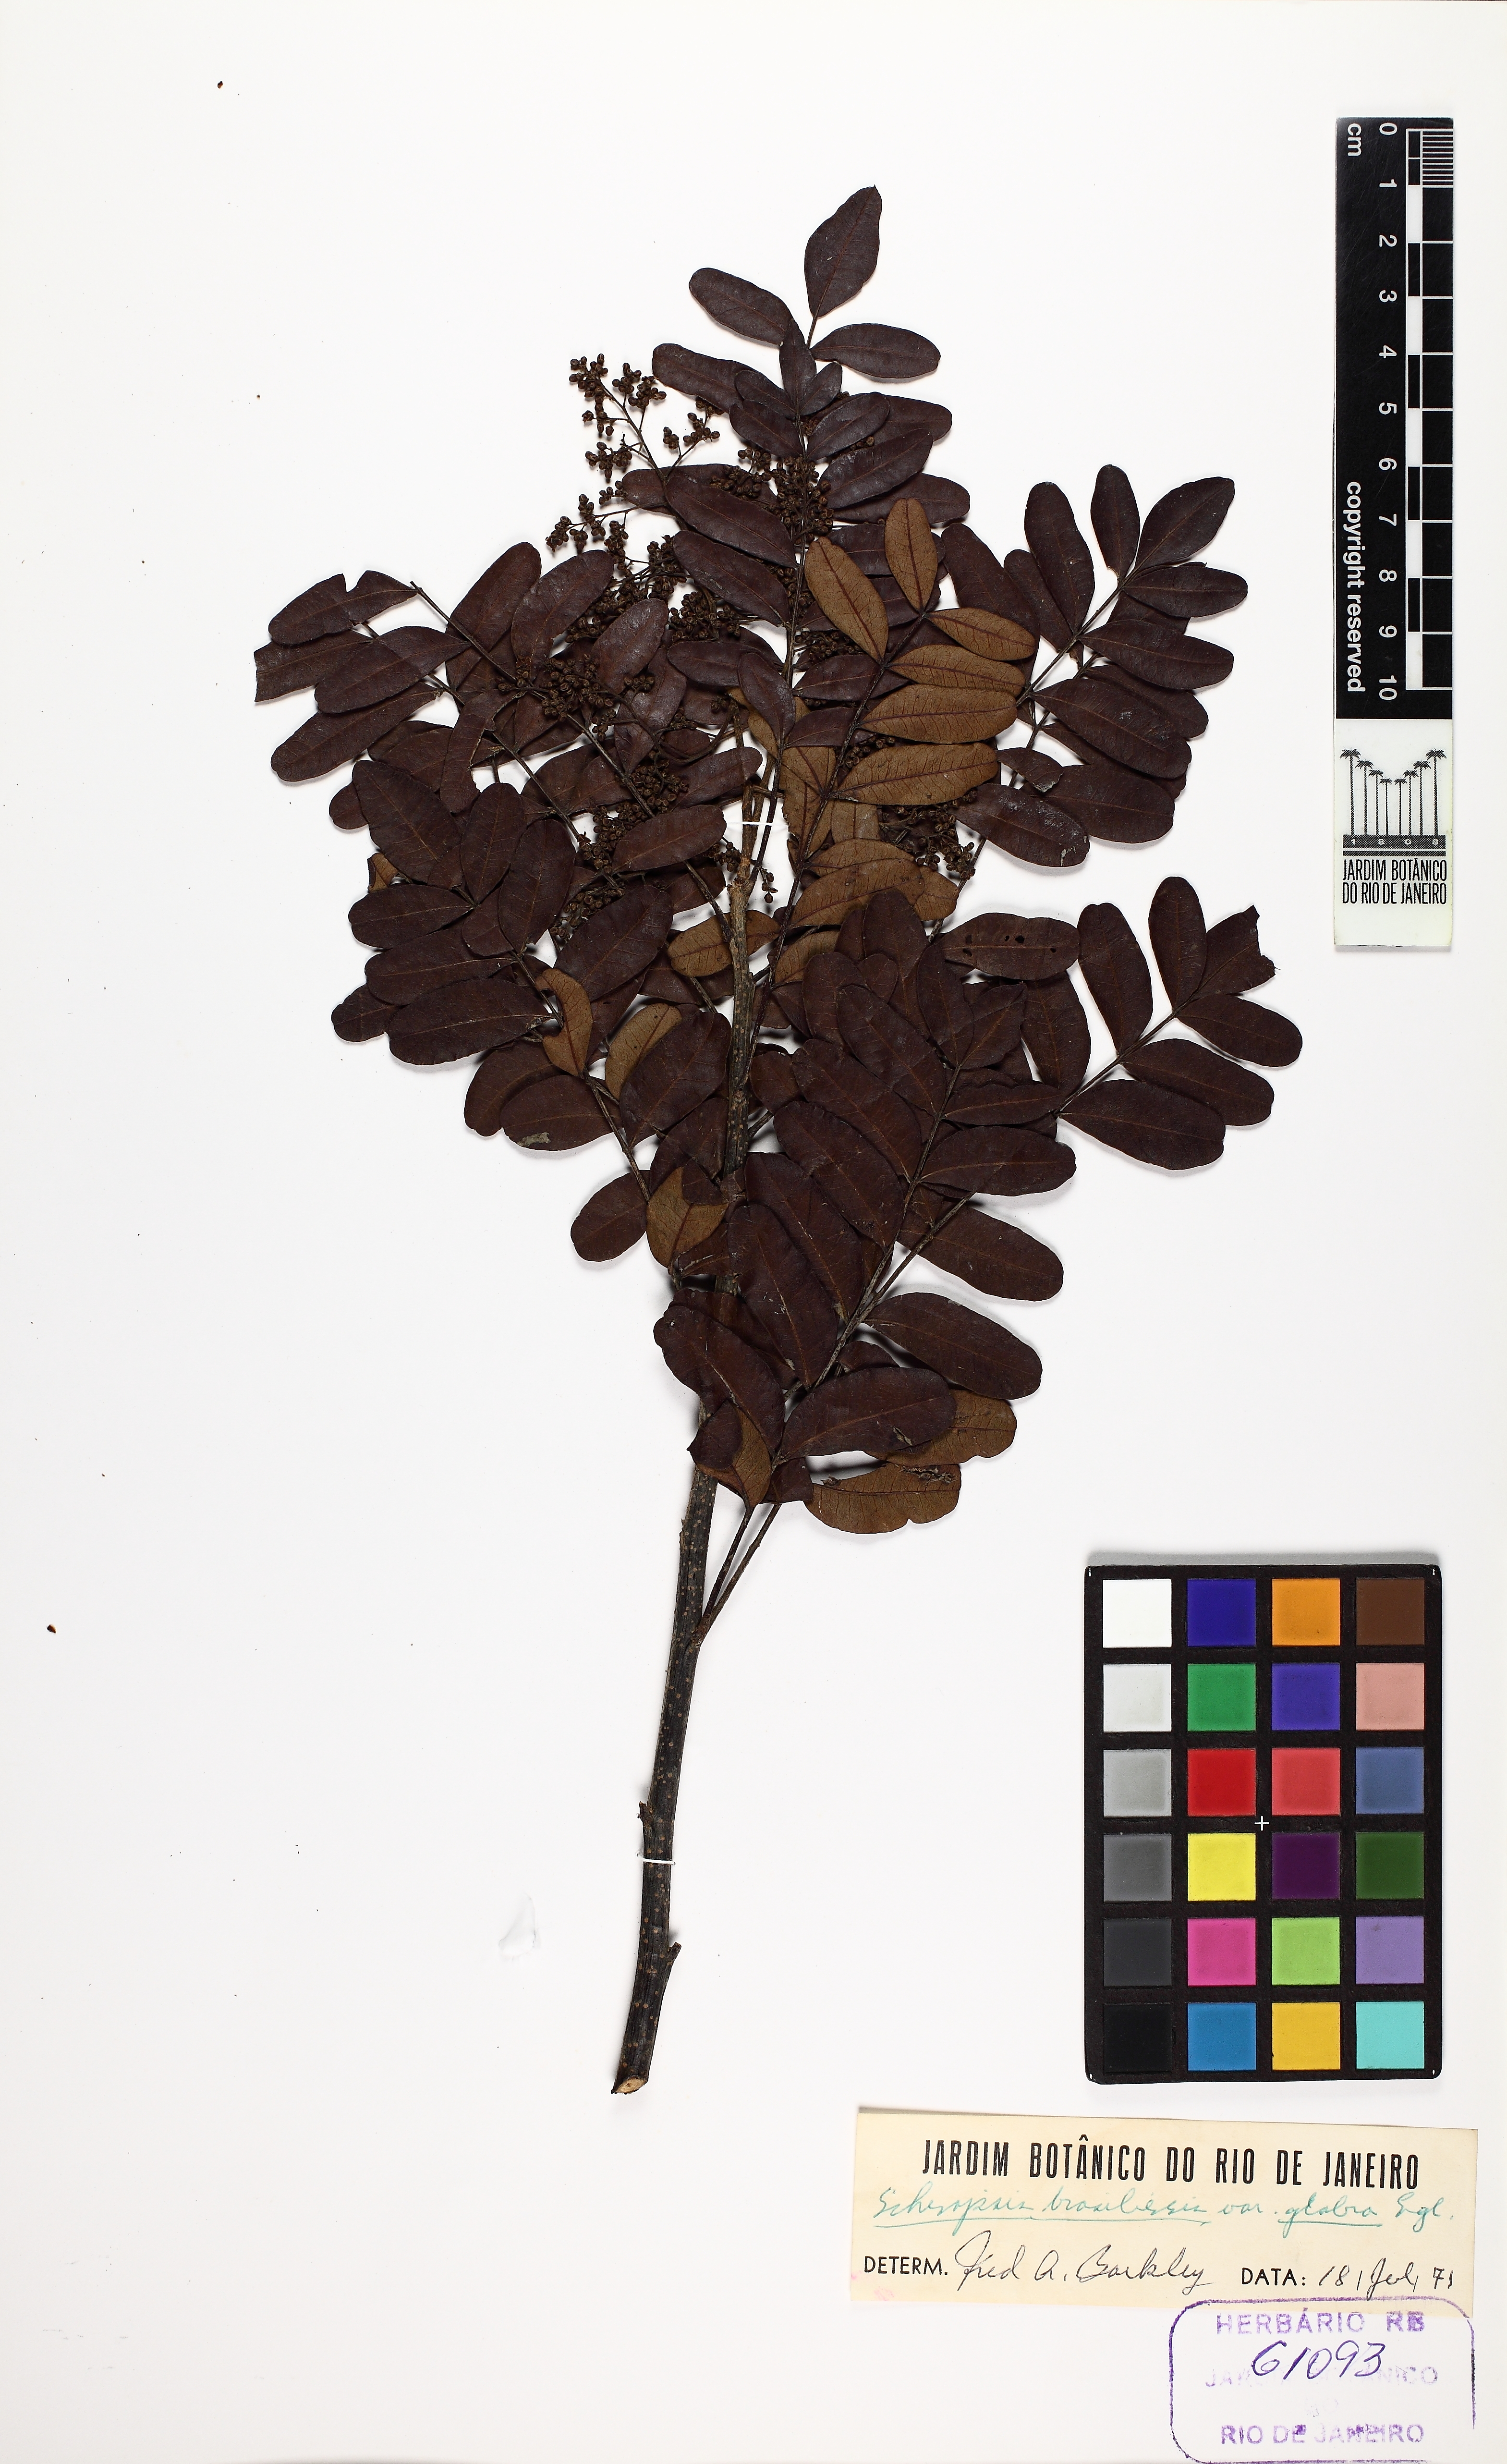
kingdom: Plantae
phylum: Tracheophyta
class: Magnoliopsida
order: Sapindales
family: Anacardiaceae
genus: Schinopsis
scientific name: Schinopsis brasiliensis
